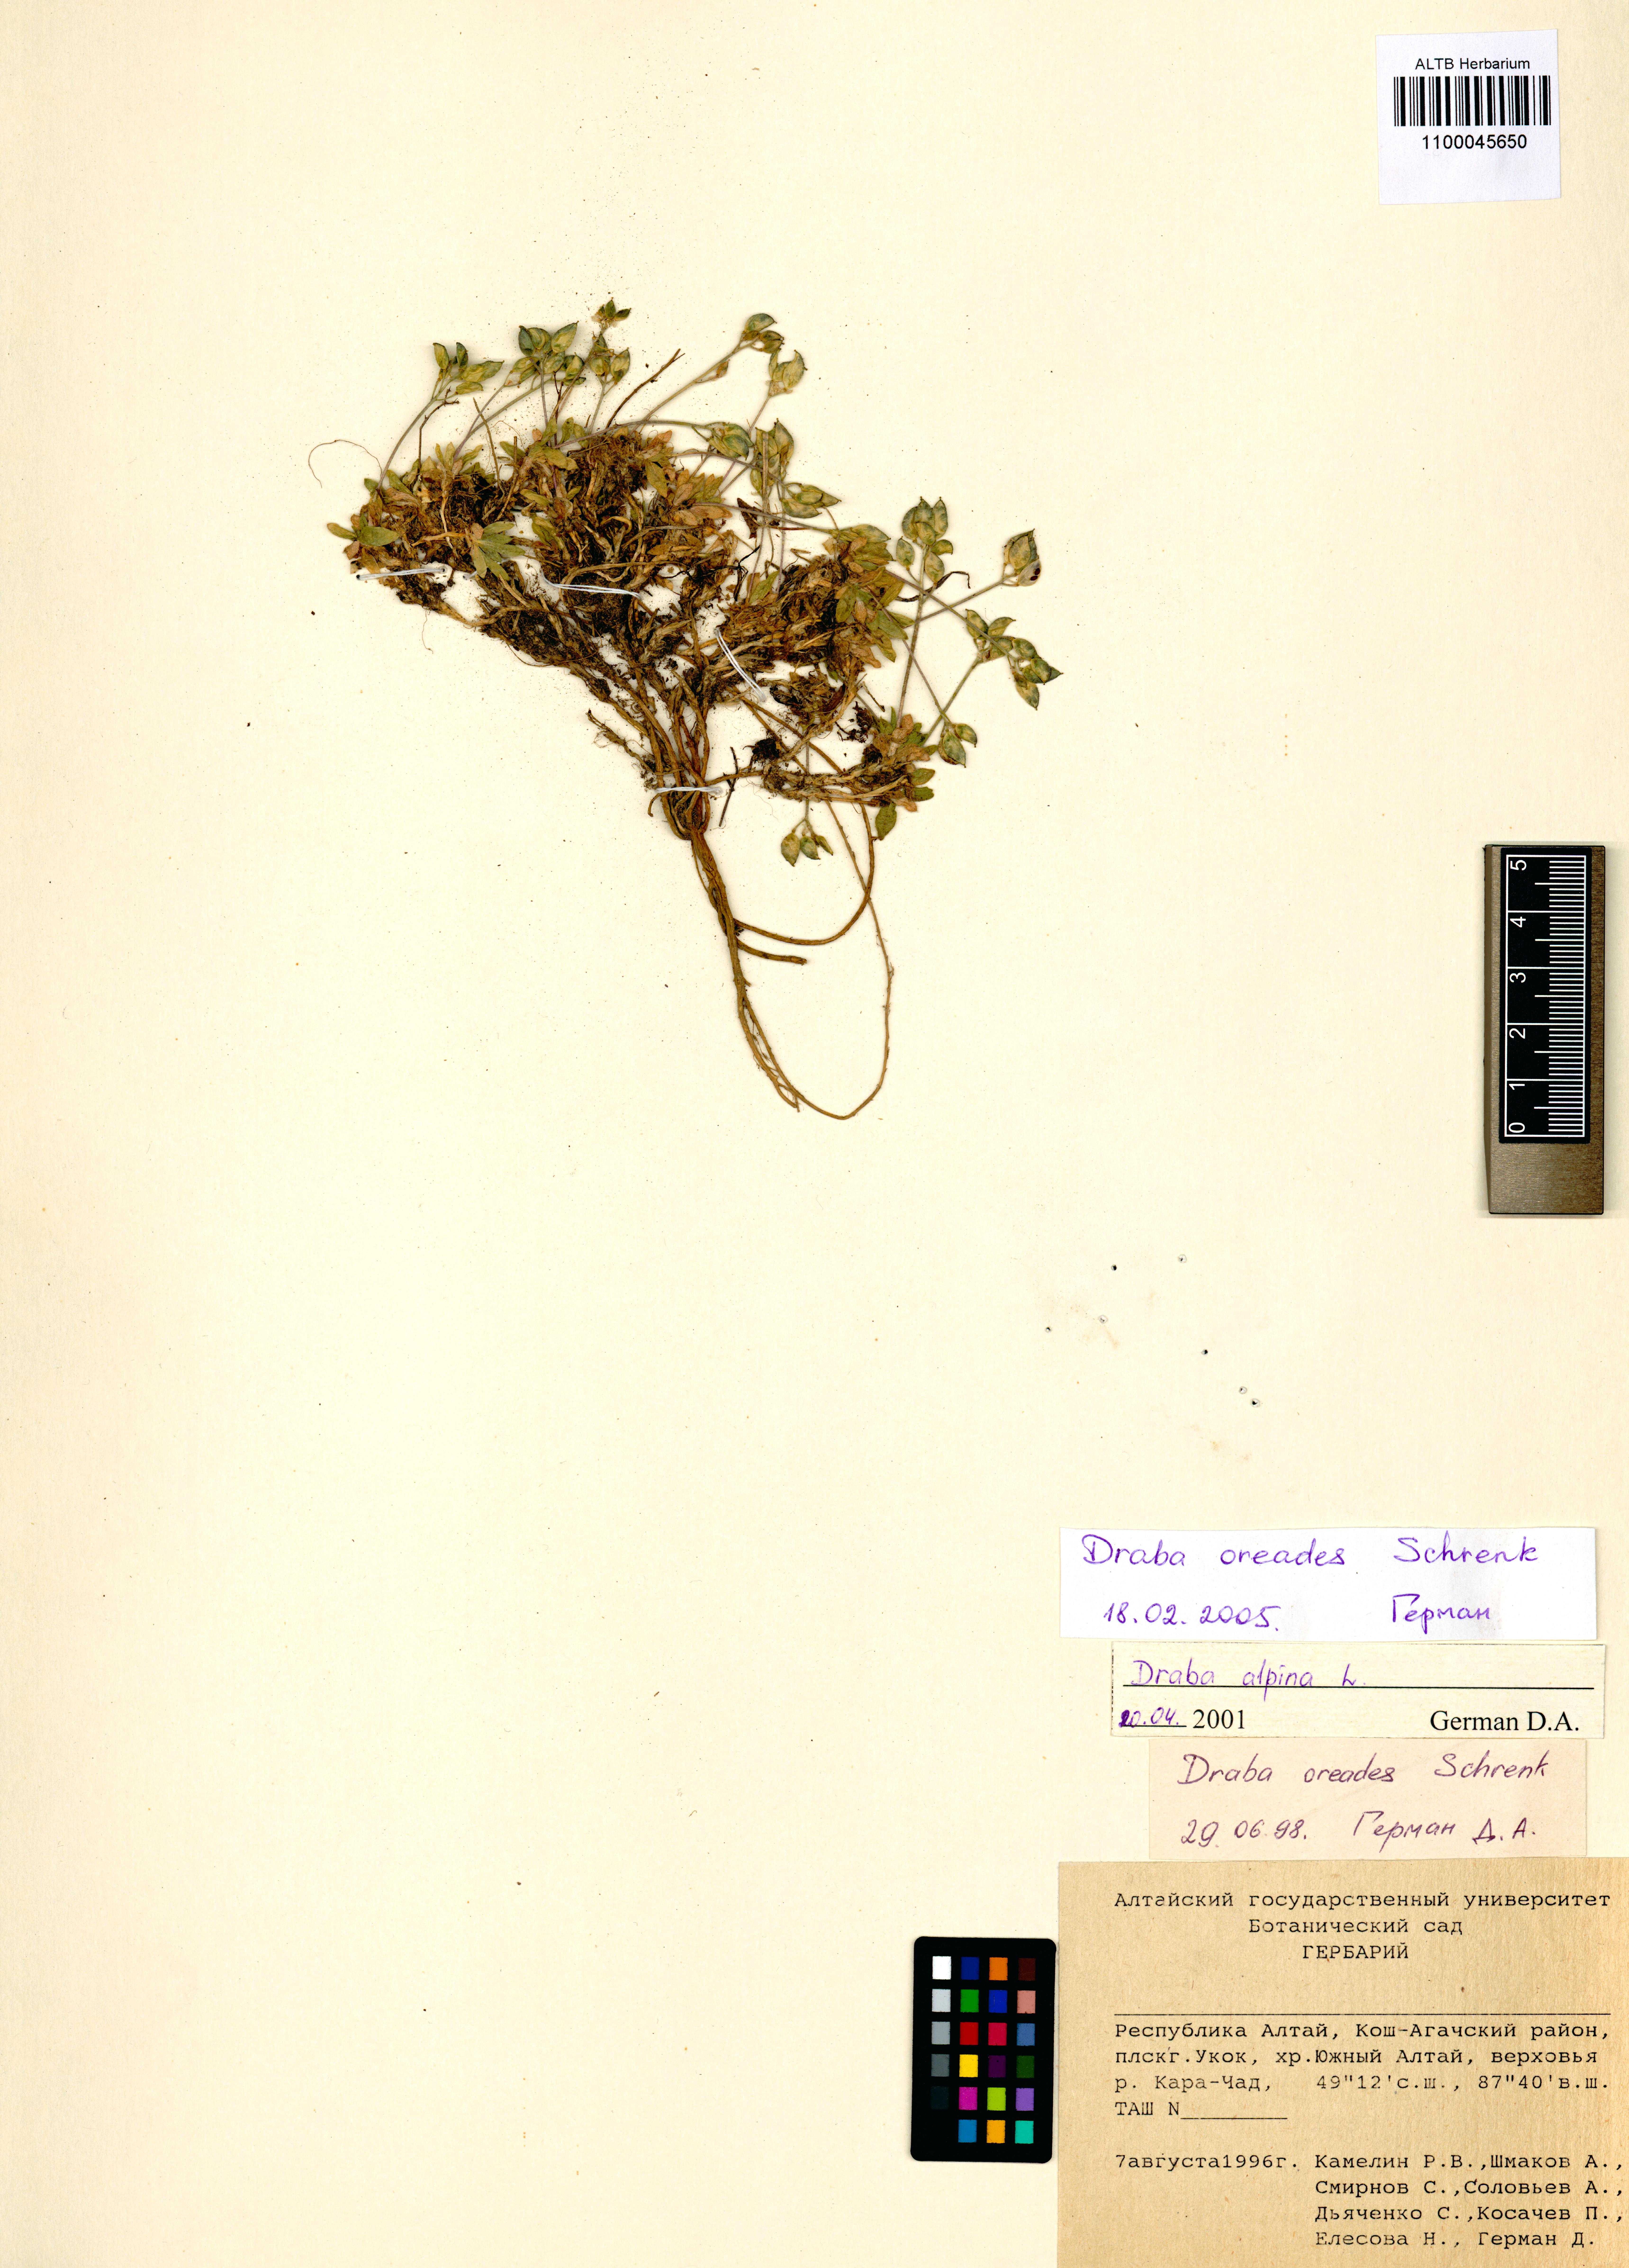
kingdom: Plantae
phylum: Tracheophyta
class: Magnoliopsida
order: Brassicales
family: Brassicaceae
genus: Draba
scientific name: Draba oreades
